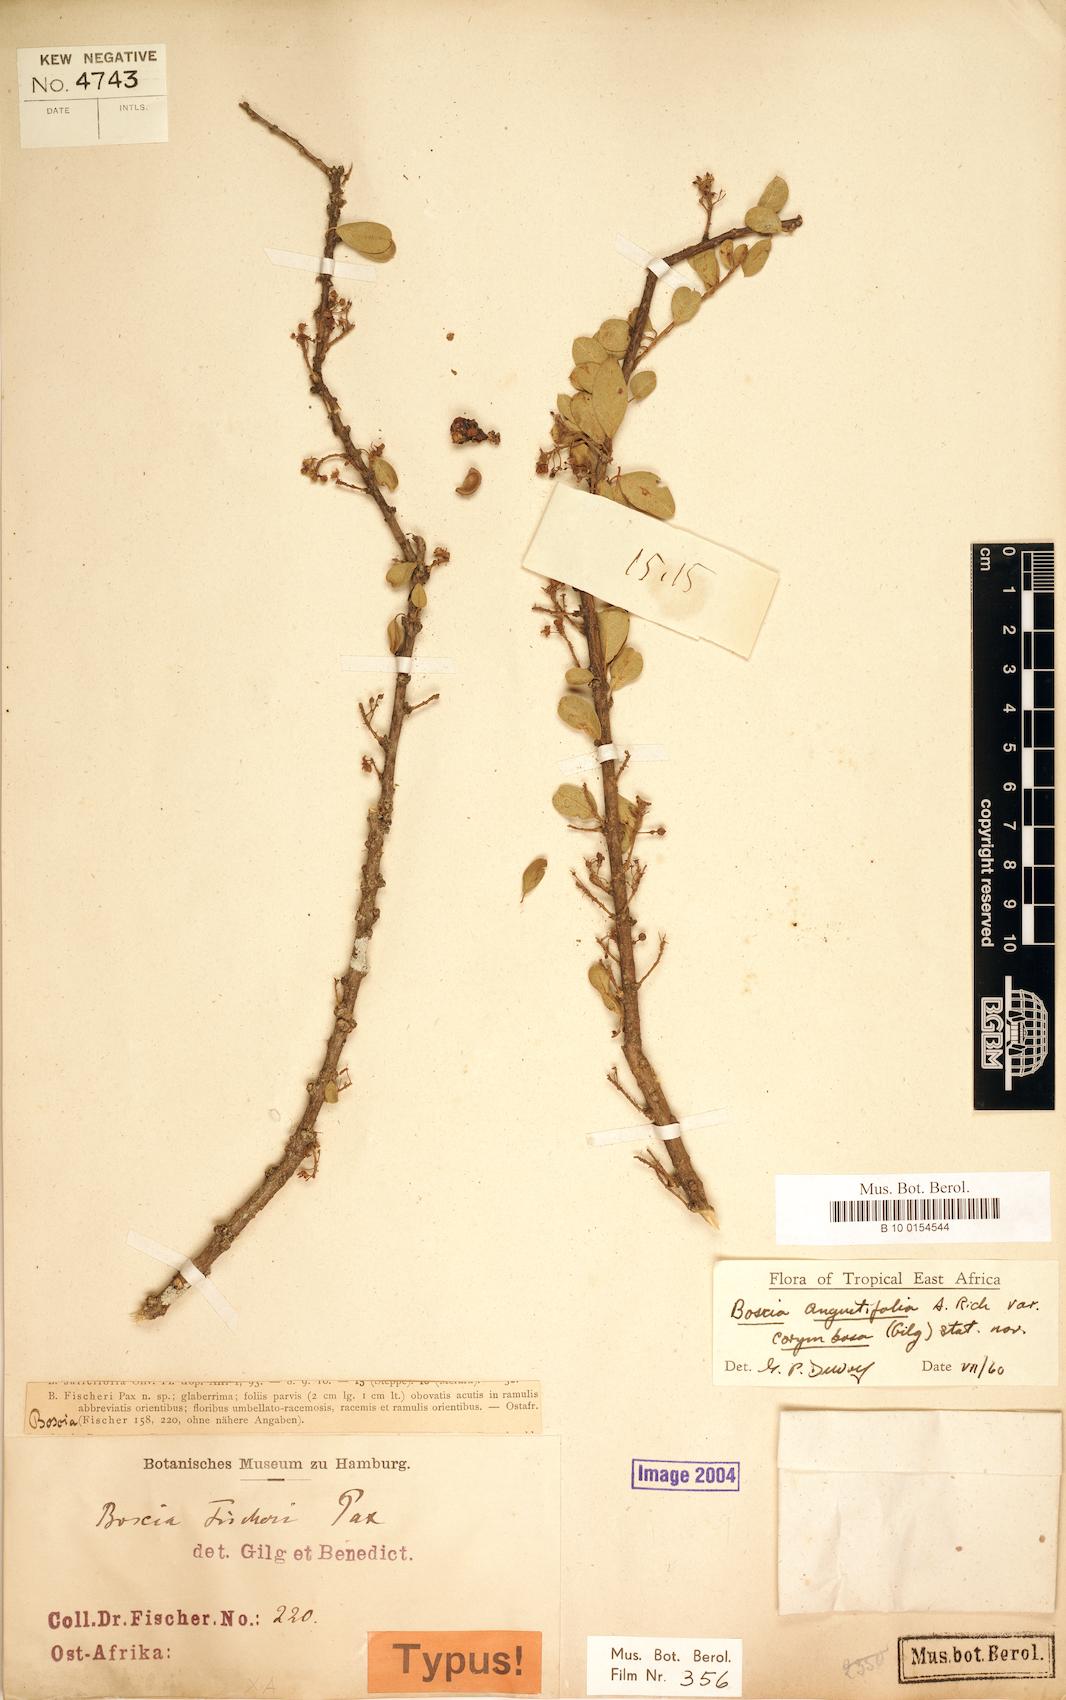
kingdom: Plantae
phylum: Tracheophyta
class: Magnoliopsida
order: Brassicales
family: Capparaceae
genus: Boscia
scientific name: Boscia angustifolia
